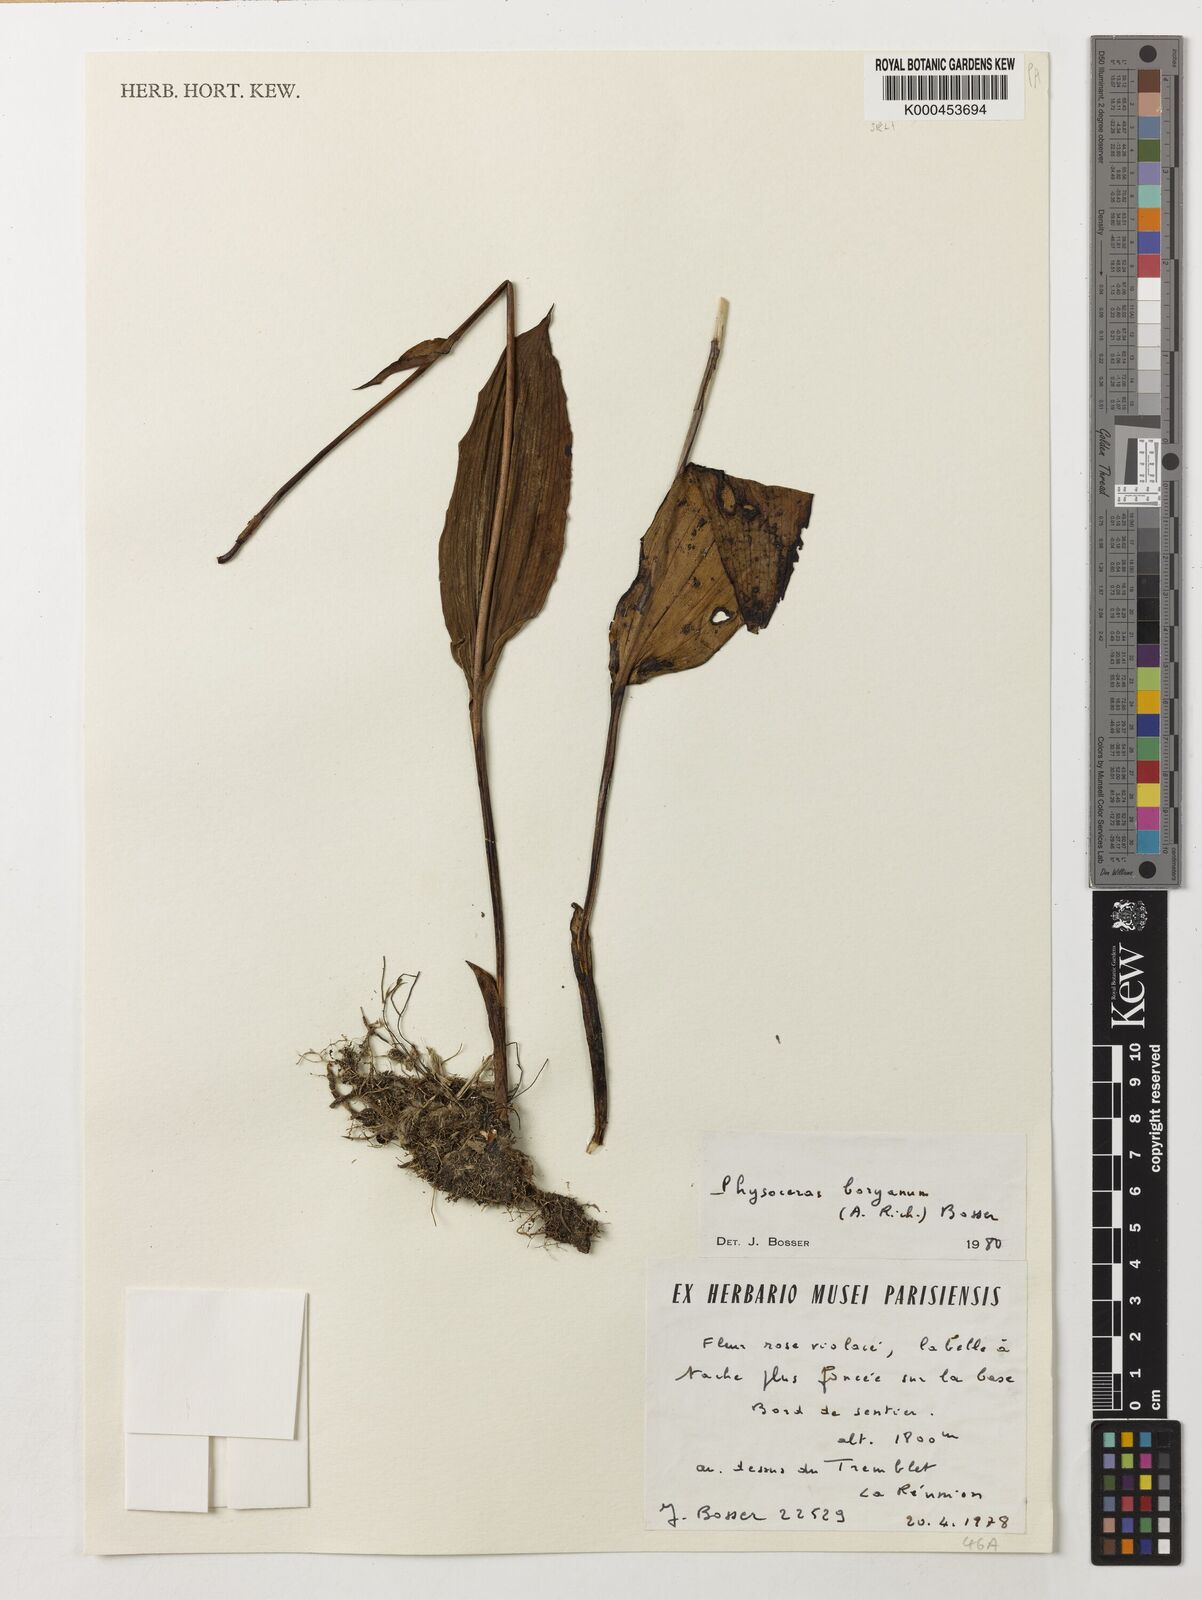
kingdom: Plantae
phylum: Tracheophyta
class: Liliopsida
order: Asparagales
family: Orchidaceae
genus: Cynorkis
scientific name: Cynorkis boryana
